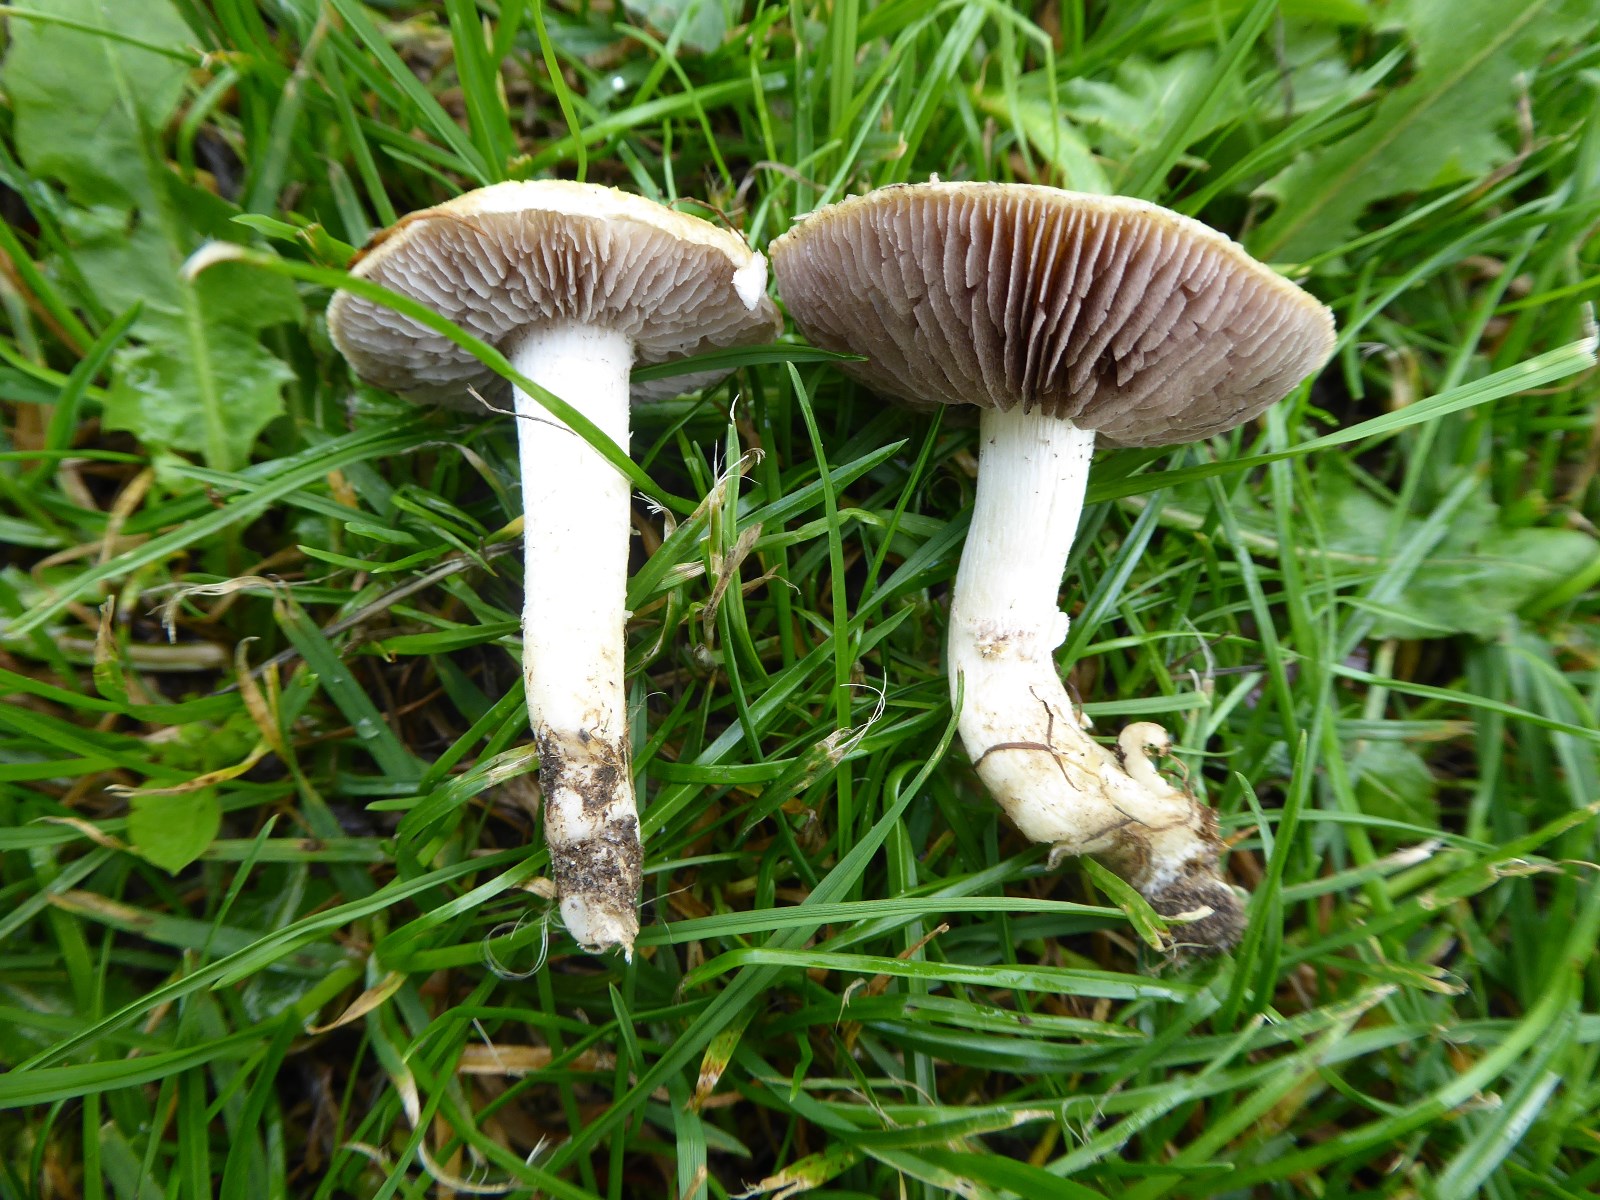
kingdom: Fungi
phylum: Basidiomycota
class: Agaricomycetes
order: Agaricales
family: Hymenogastraceae
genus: Psilocybe
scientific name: Psilocybe coronilla
